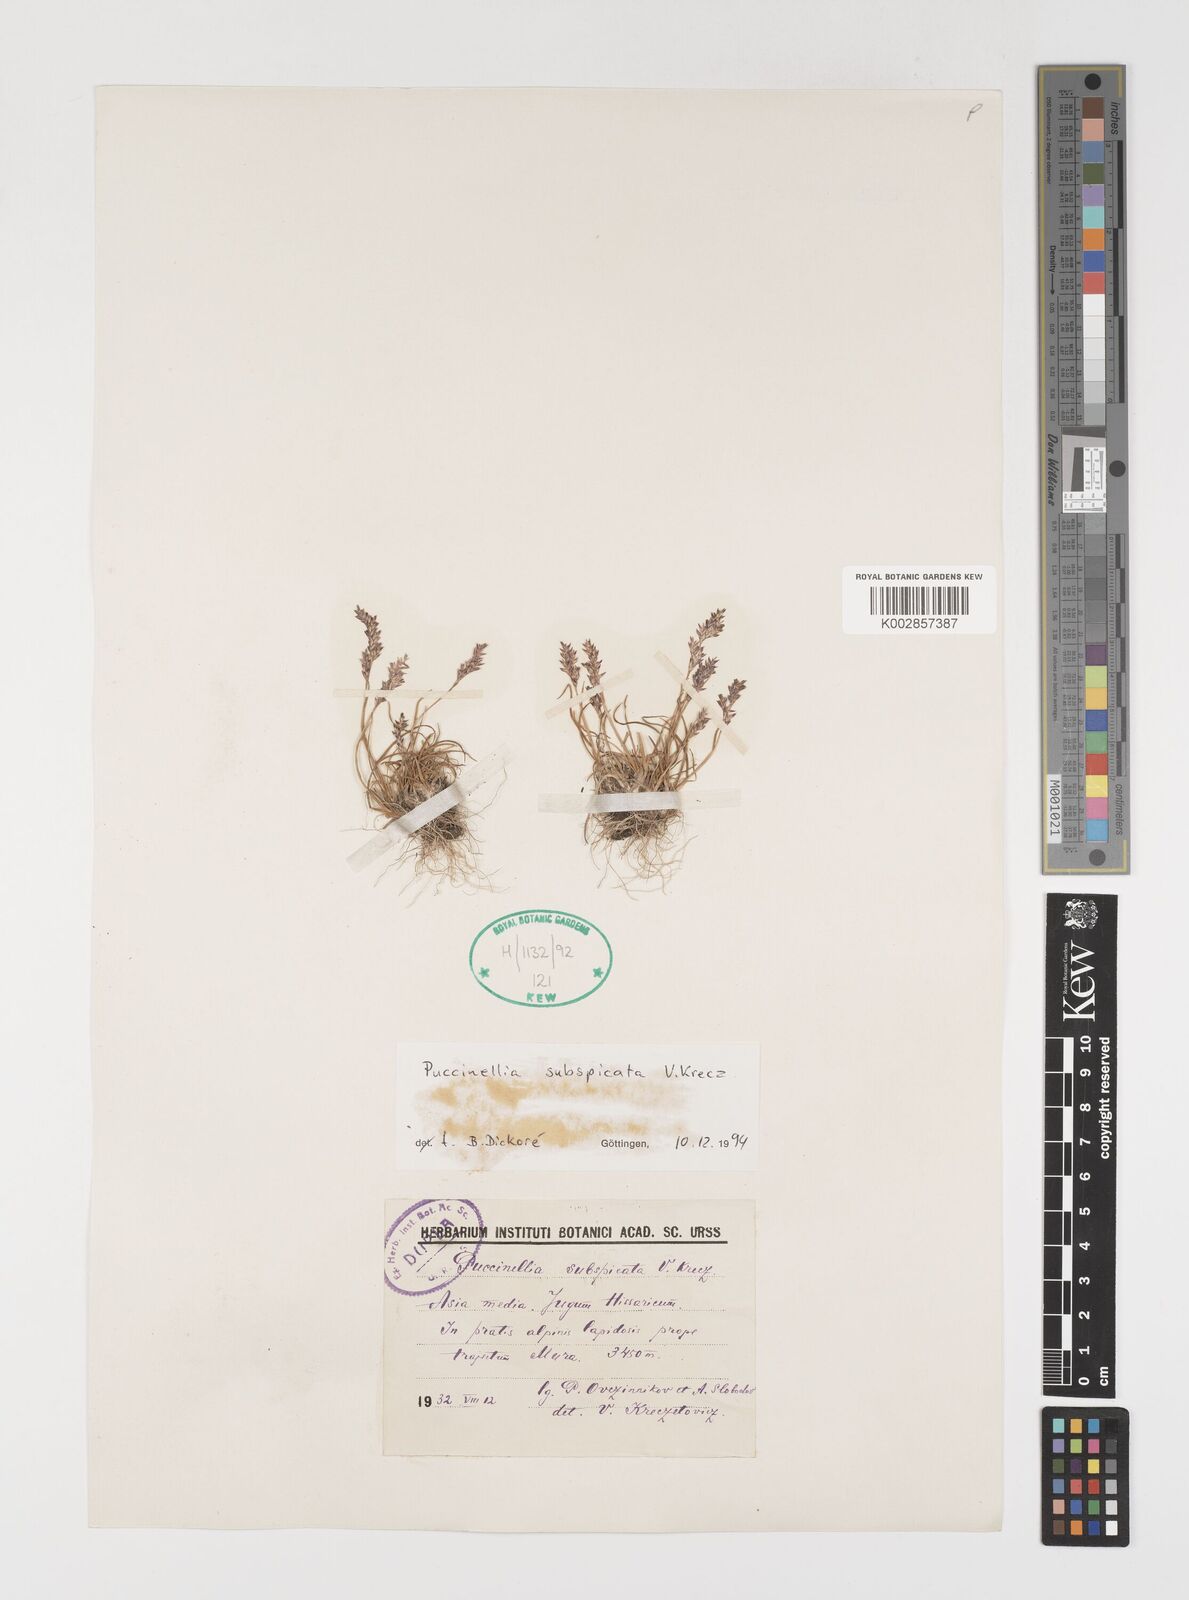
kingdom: Plantae
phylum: Tracheophyta
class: Liliopsida
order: Poales
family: Poaceae
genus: Puccinellia
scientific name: Puccinellia subspicata
